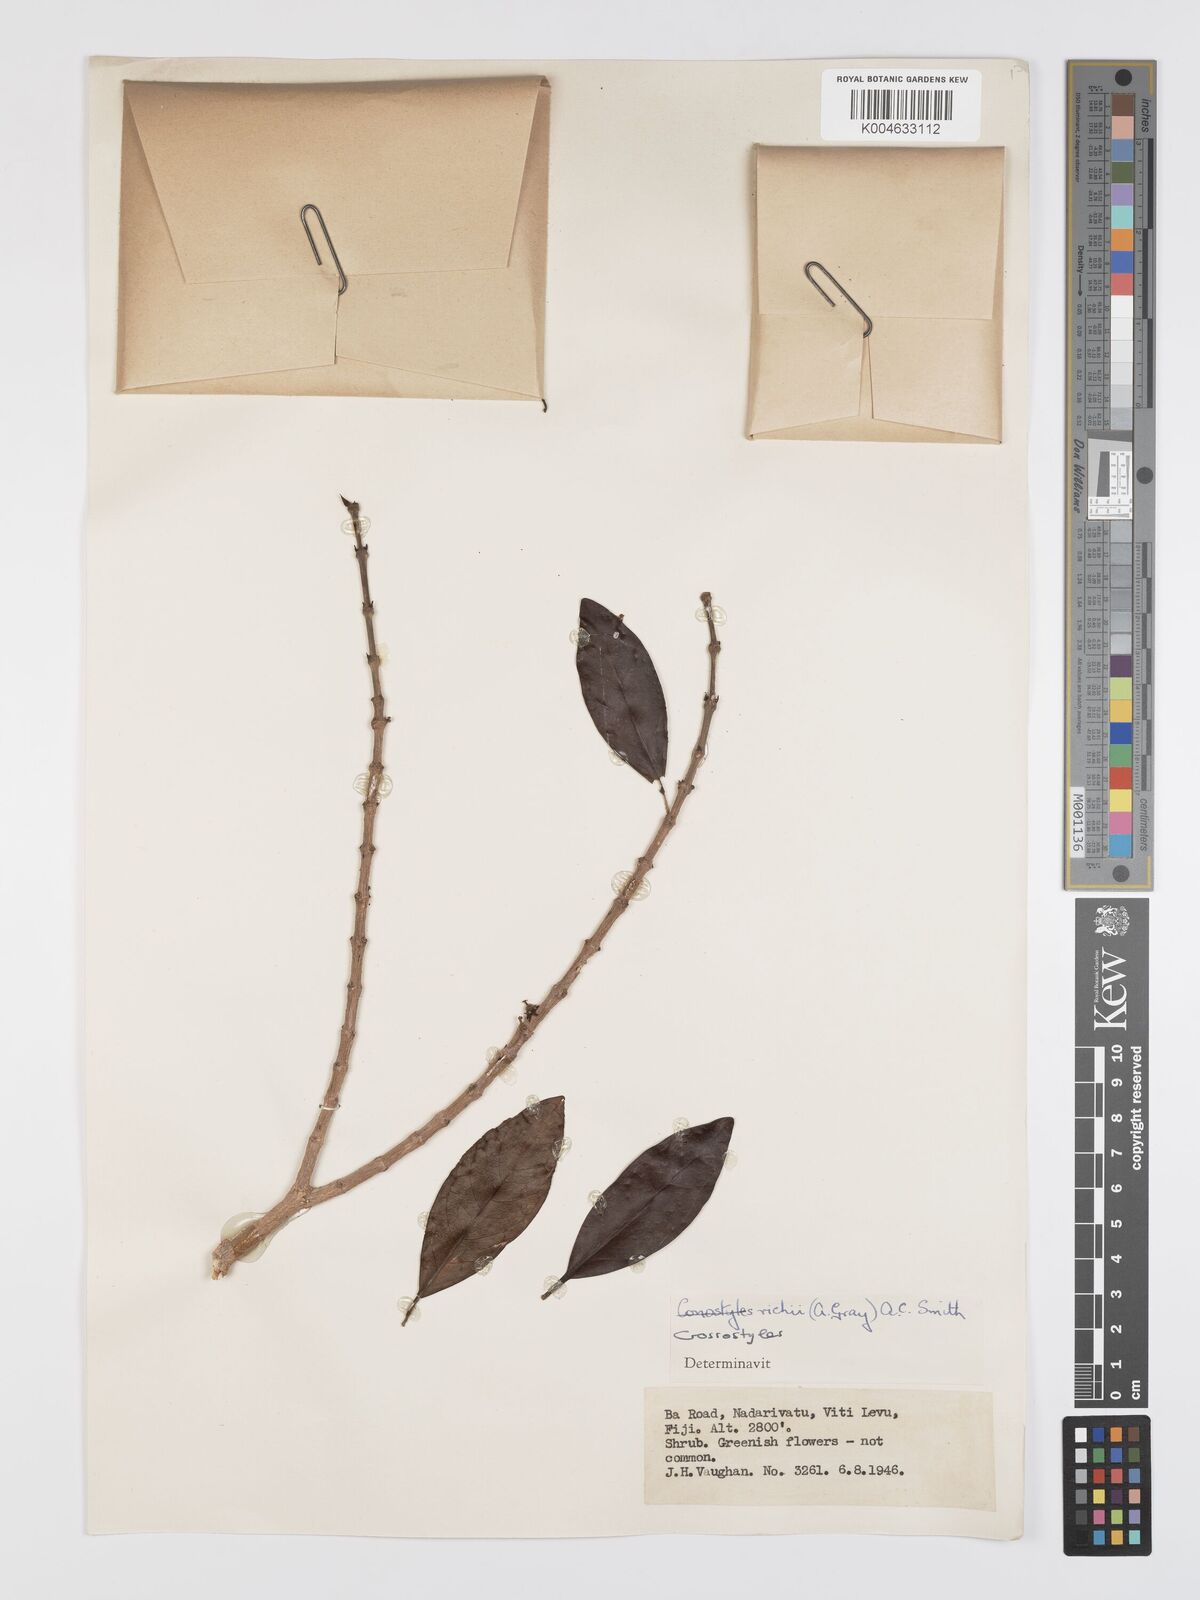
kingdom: Plantae
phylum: Tracheophyta
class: Magnoliopsida
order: Malpighiales
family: Rhizophoraceae
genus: Crossostylis
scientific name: Crossostylis richii
